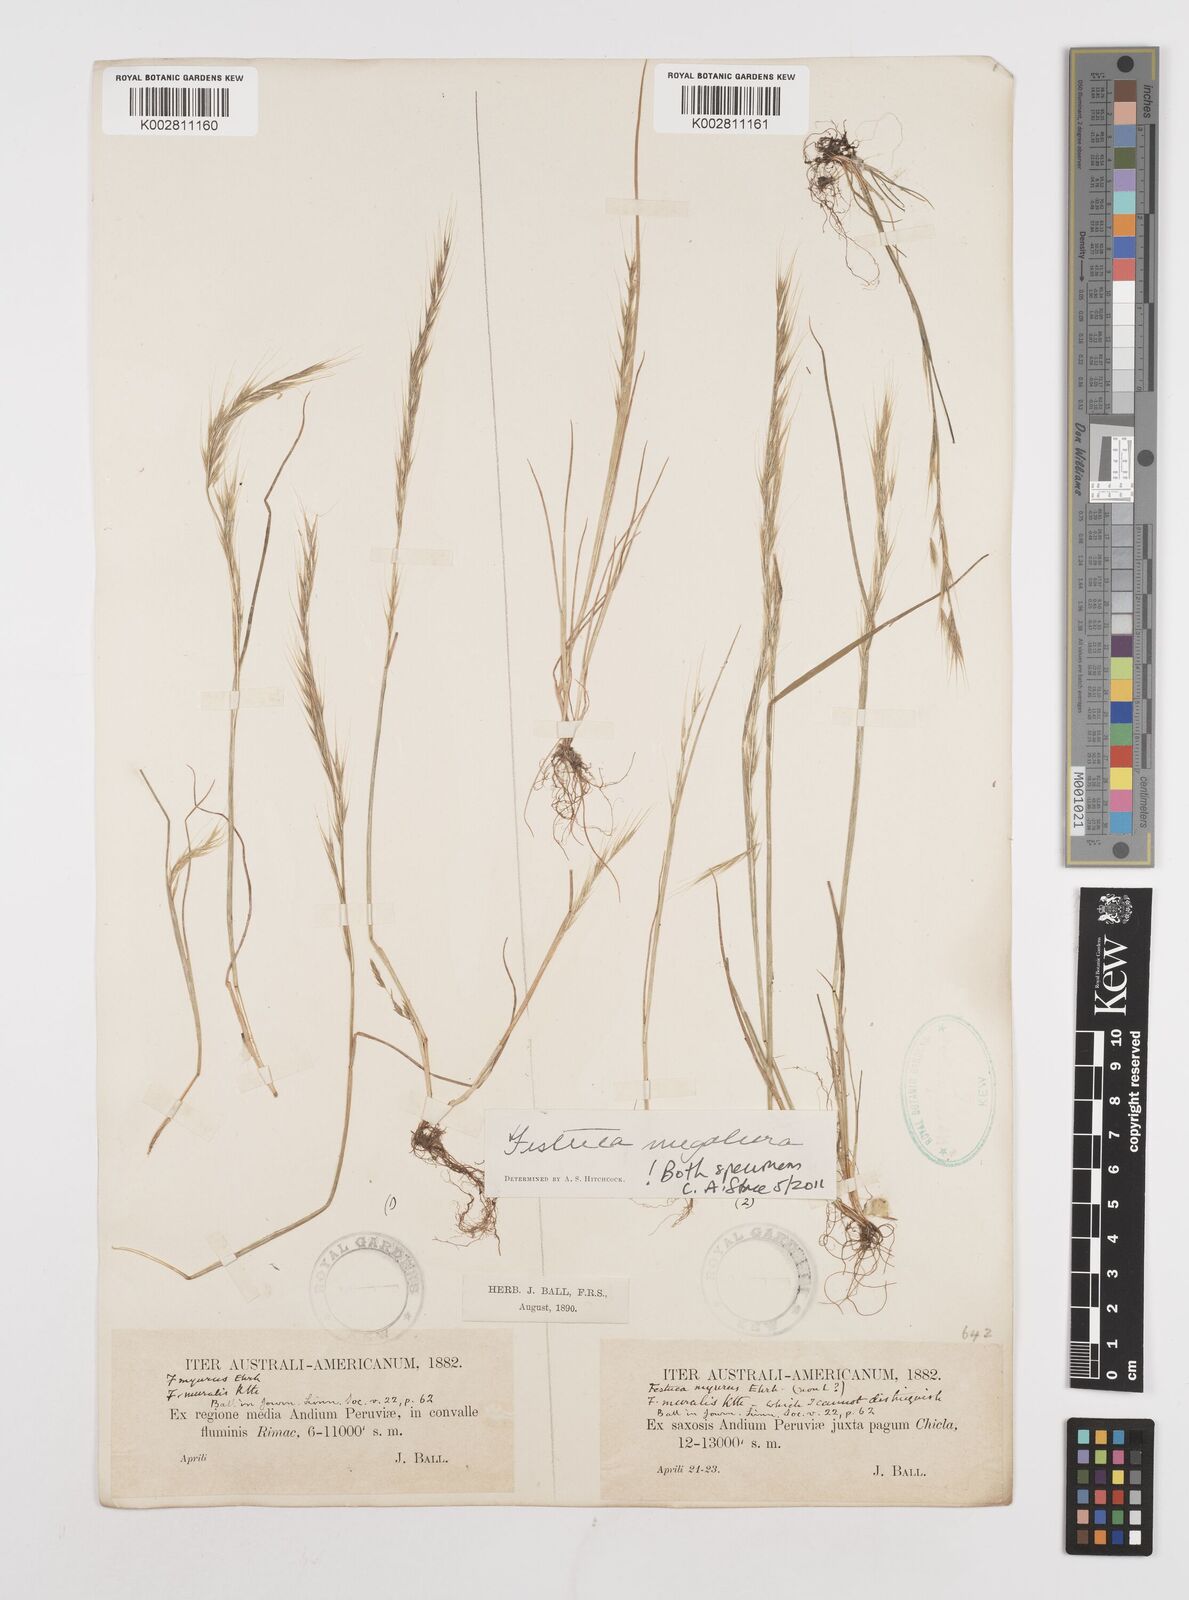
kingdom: Plantae
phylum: Tracheophyta
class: Liliopsida
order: Poales
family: Poaceae
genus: Festuca
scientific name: Festuca myuros
